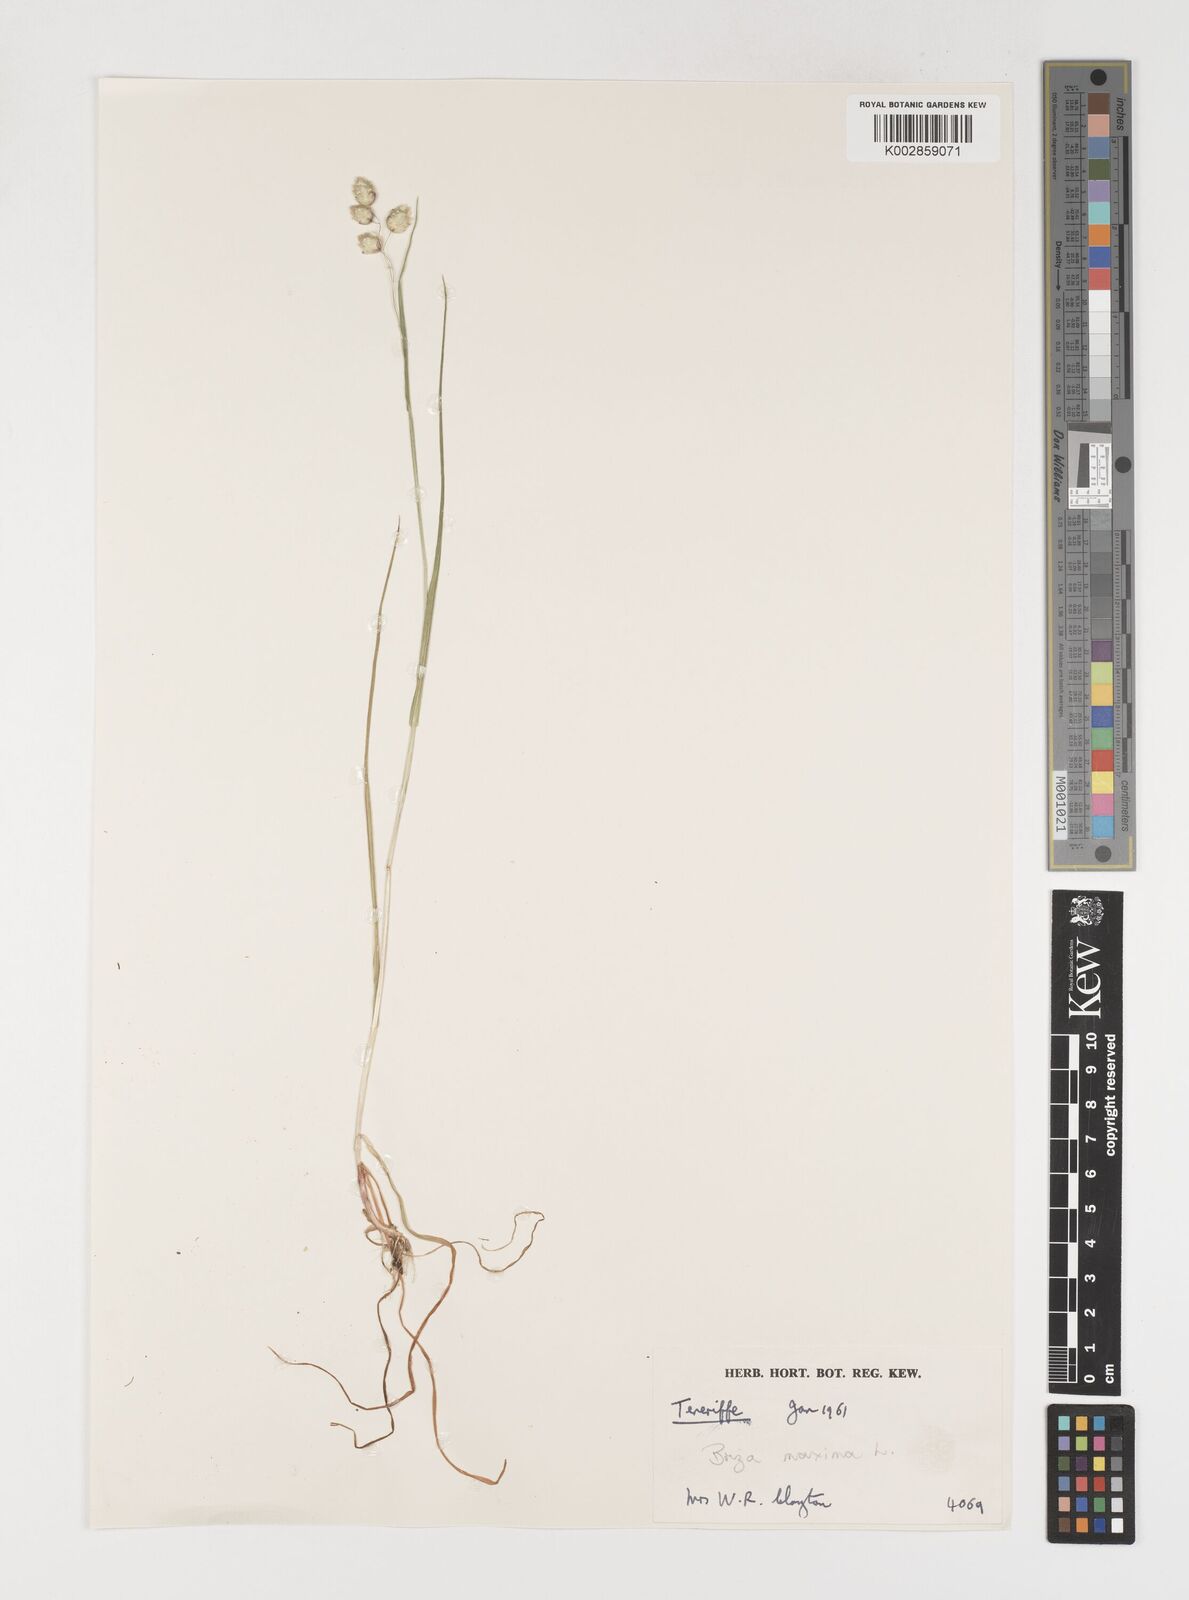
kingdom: Plantae
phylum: Tracheophyta
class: Liliopsida
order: Poales
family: Poaceae
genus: Briza
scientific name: Briza maxima
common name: Big quakinggrass
